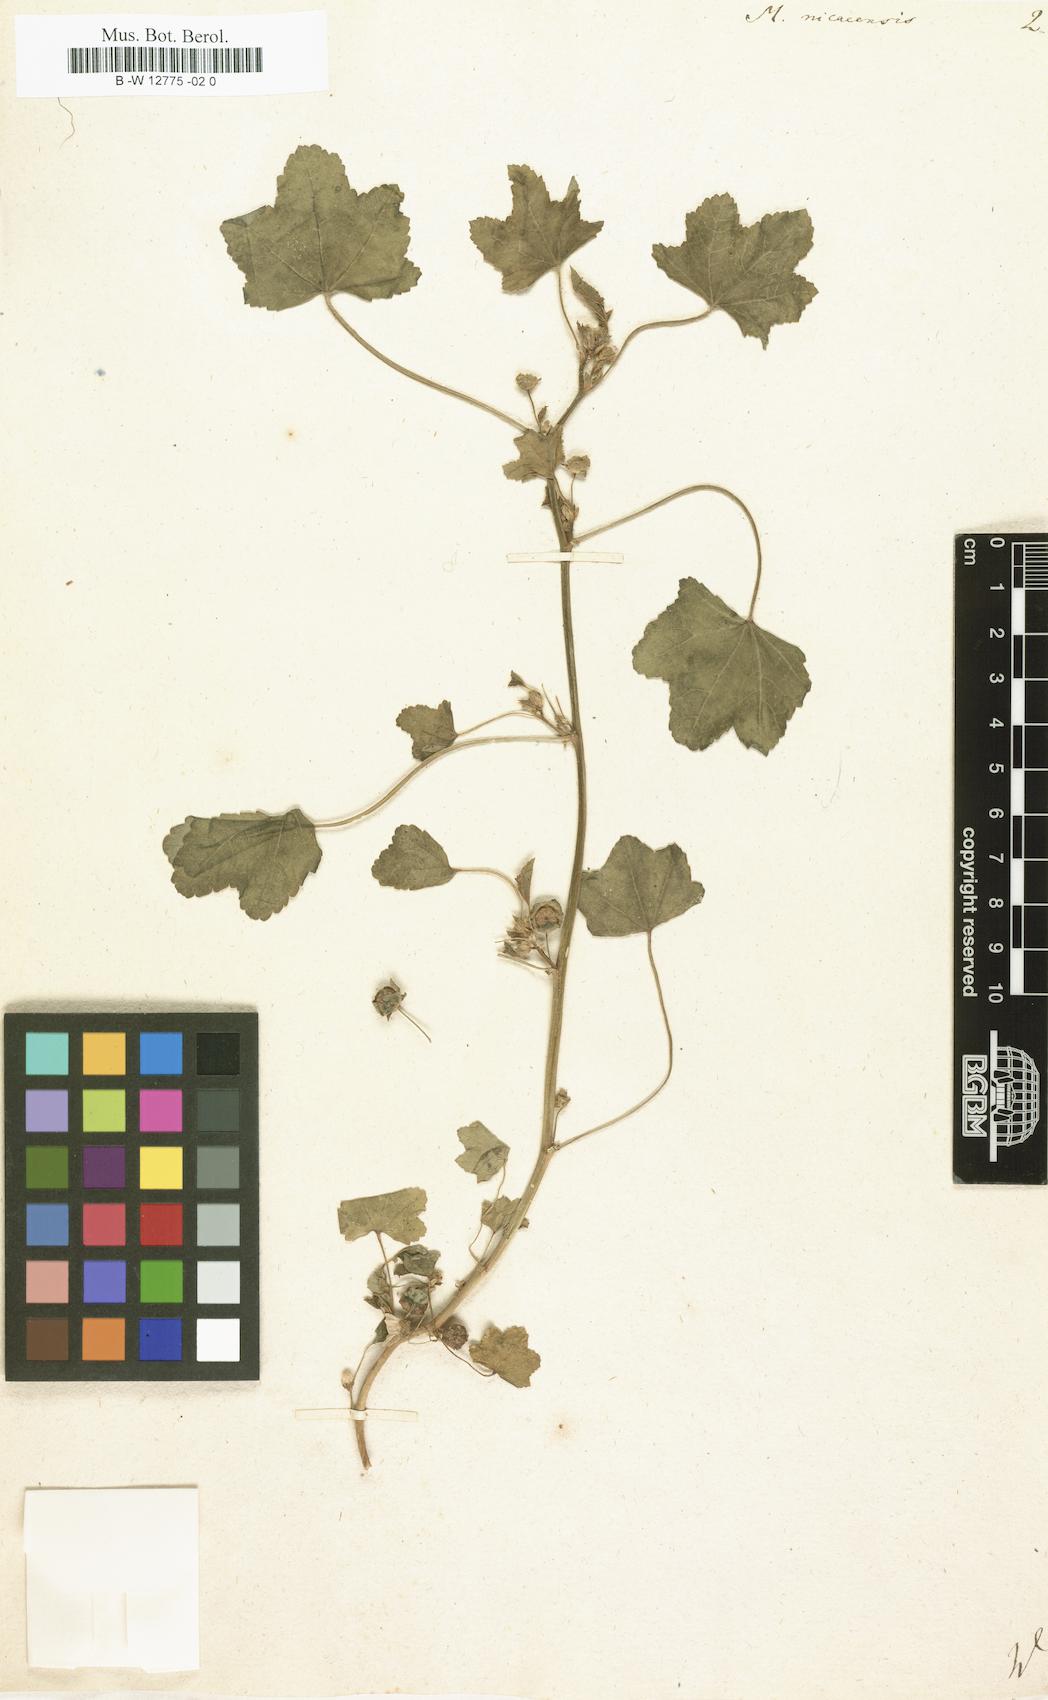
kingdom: Plantae
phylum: Tracheophyta
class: Magnoliopsida
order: Malvales
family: Malvaceae
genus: Malva
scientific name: Malva nicaeensis
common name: French mallow
